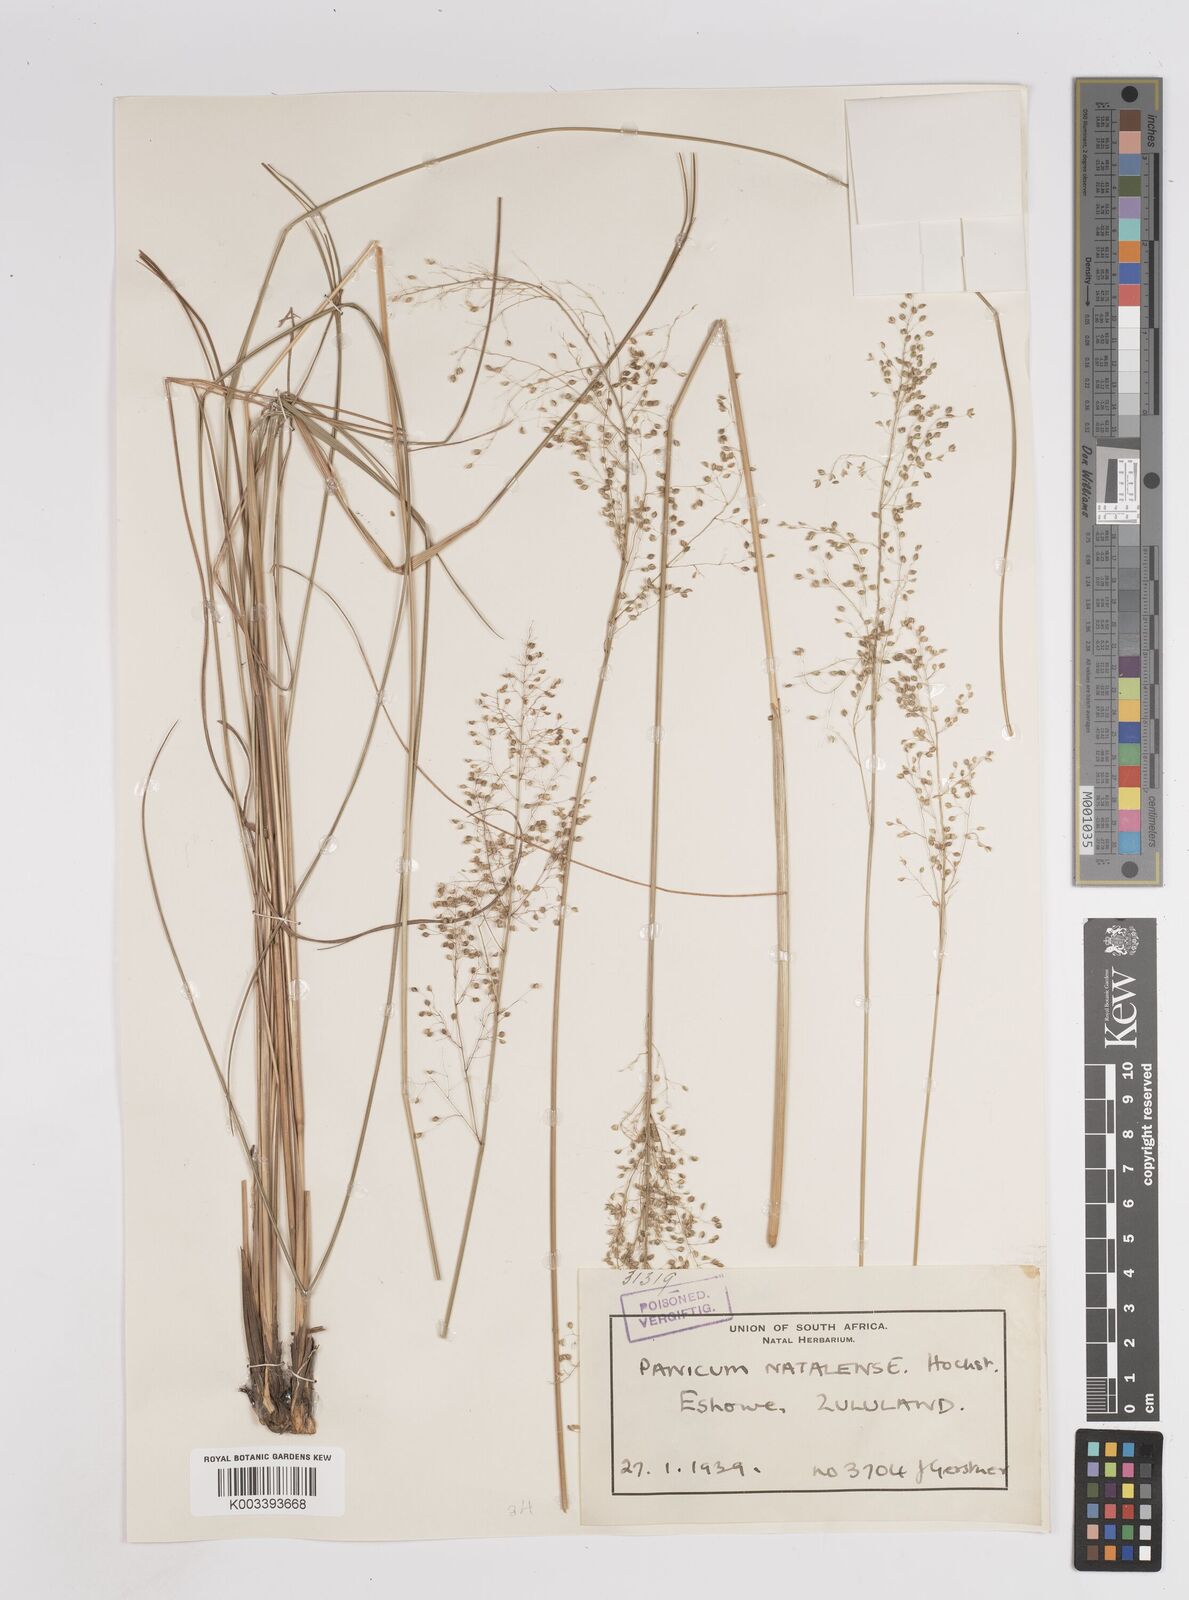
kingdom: Plantae
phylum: Tracheophyta
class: Liliopsida
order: Poales
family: Poaceae
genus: Trichanthecium
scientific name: Trichanthecium natalense
